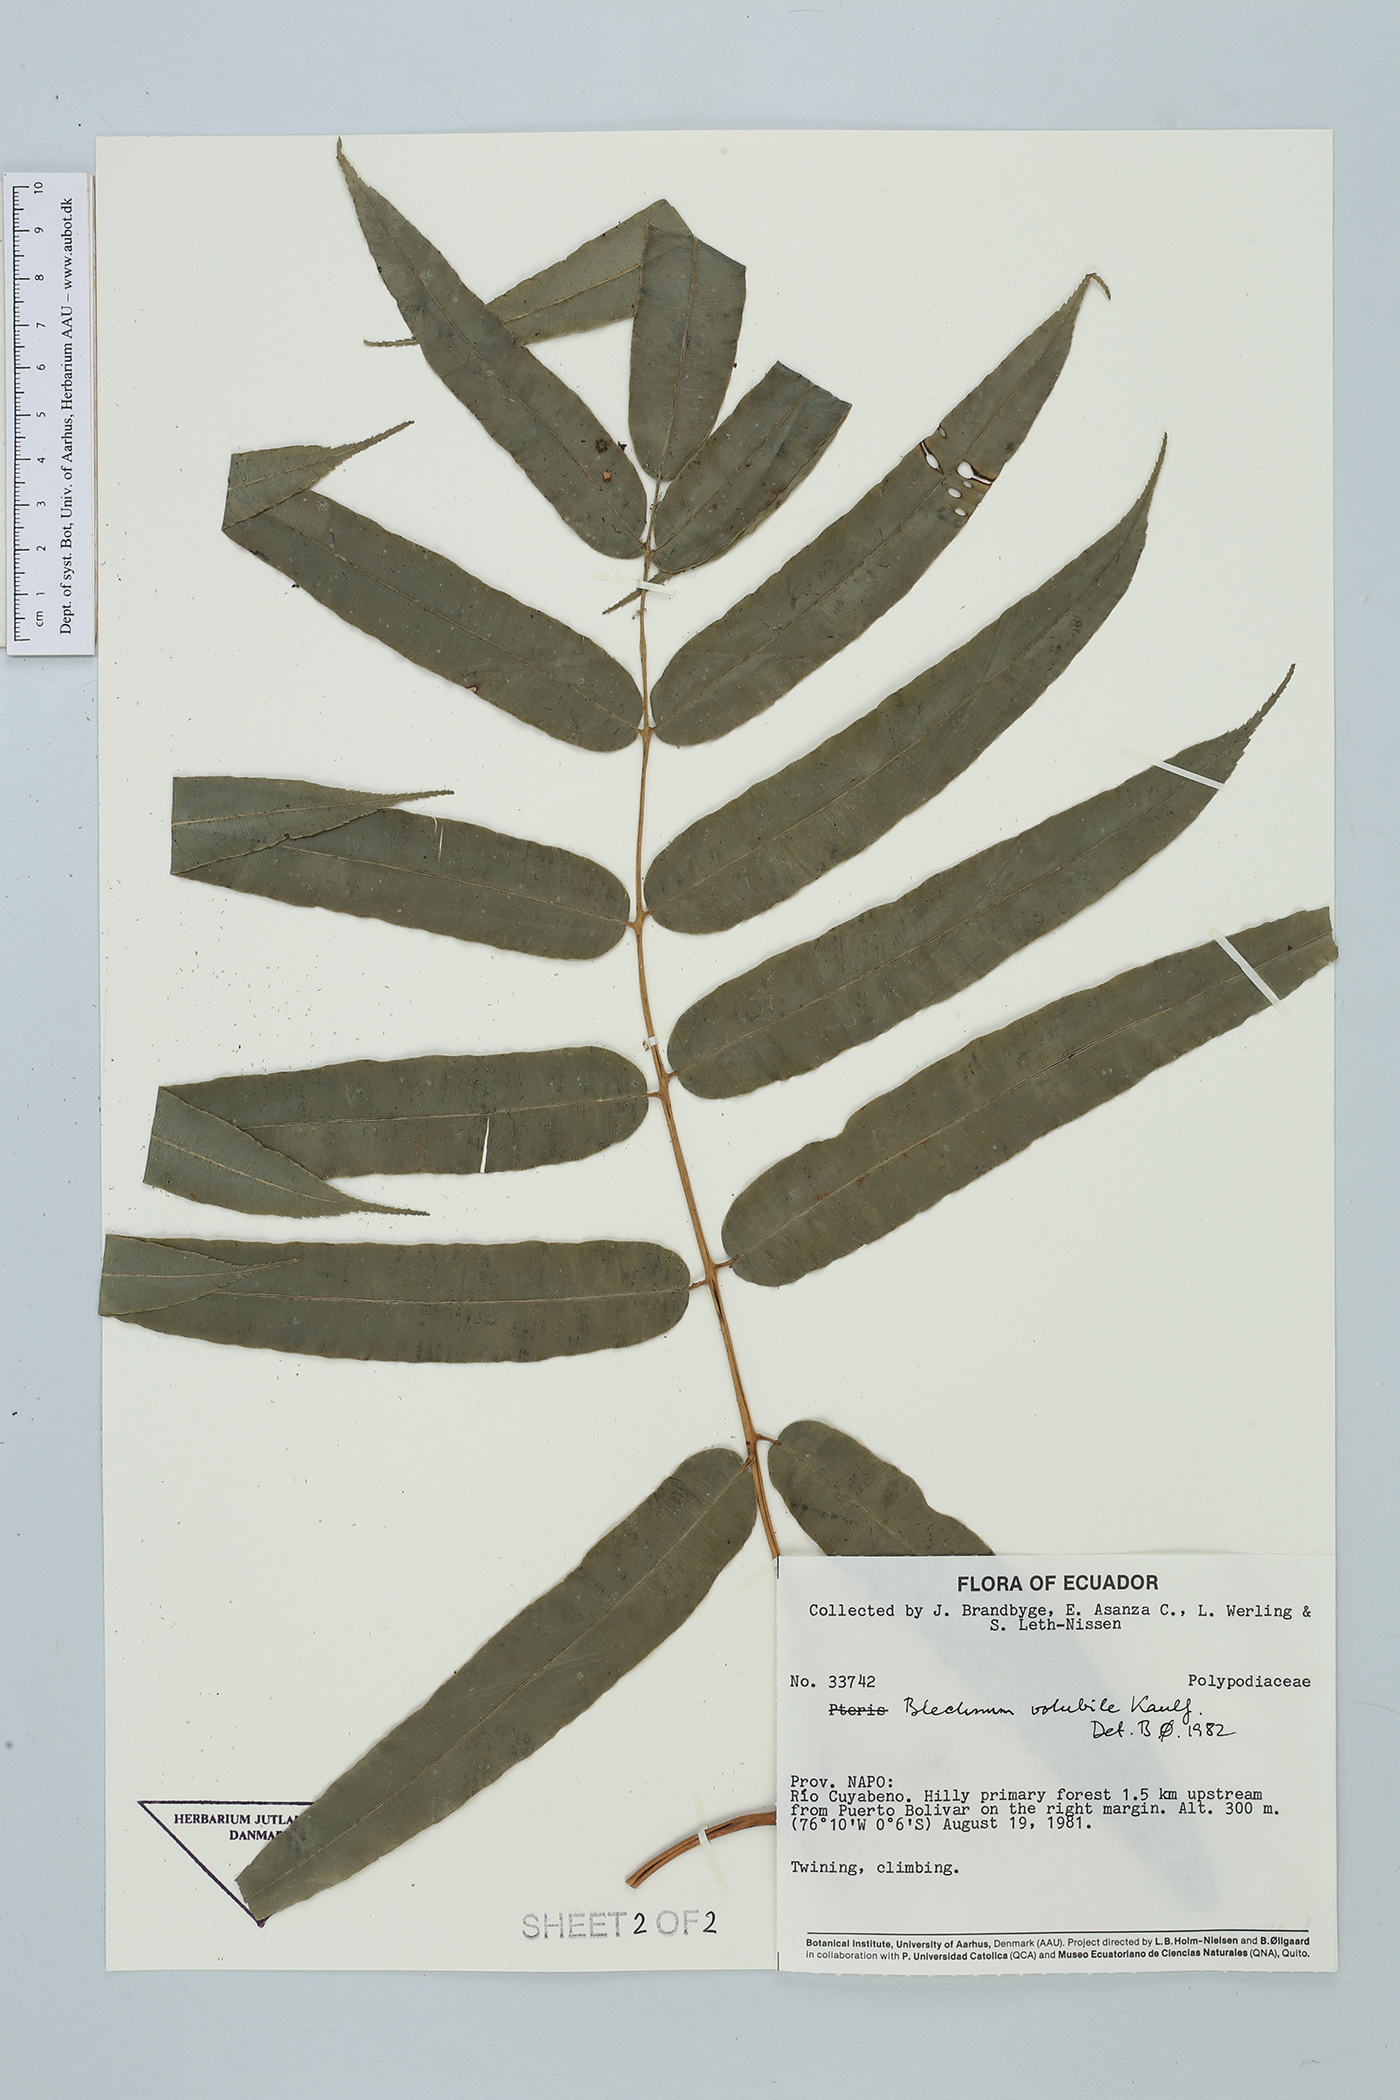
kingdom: Plantae
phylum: Tracheophyta
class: Polypodiopsida
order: Polypodiales
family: Blechnaceae
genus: Salpichlaena
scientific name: Salpichlaena volubilis
